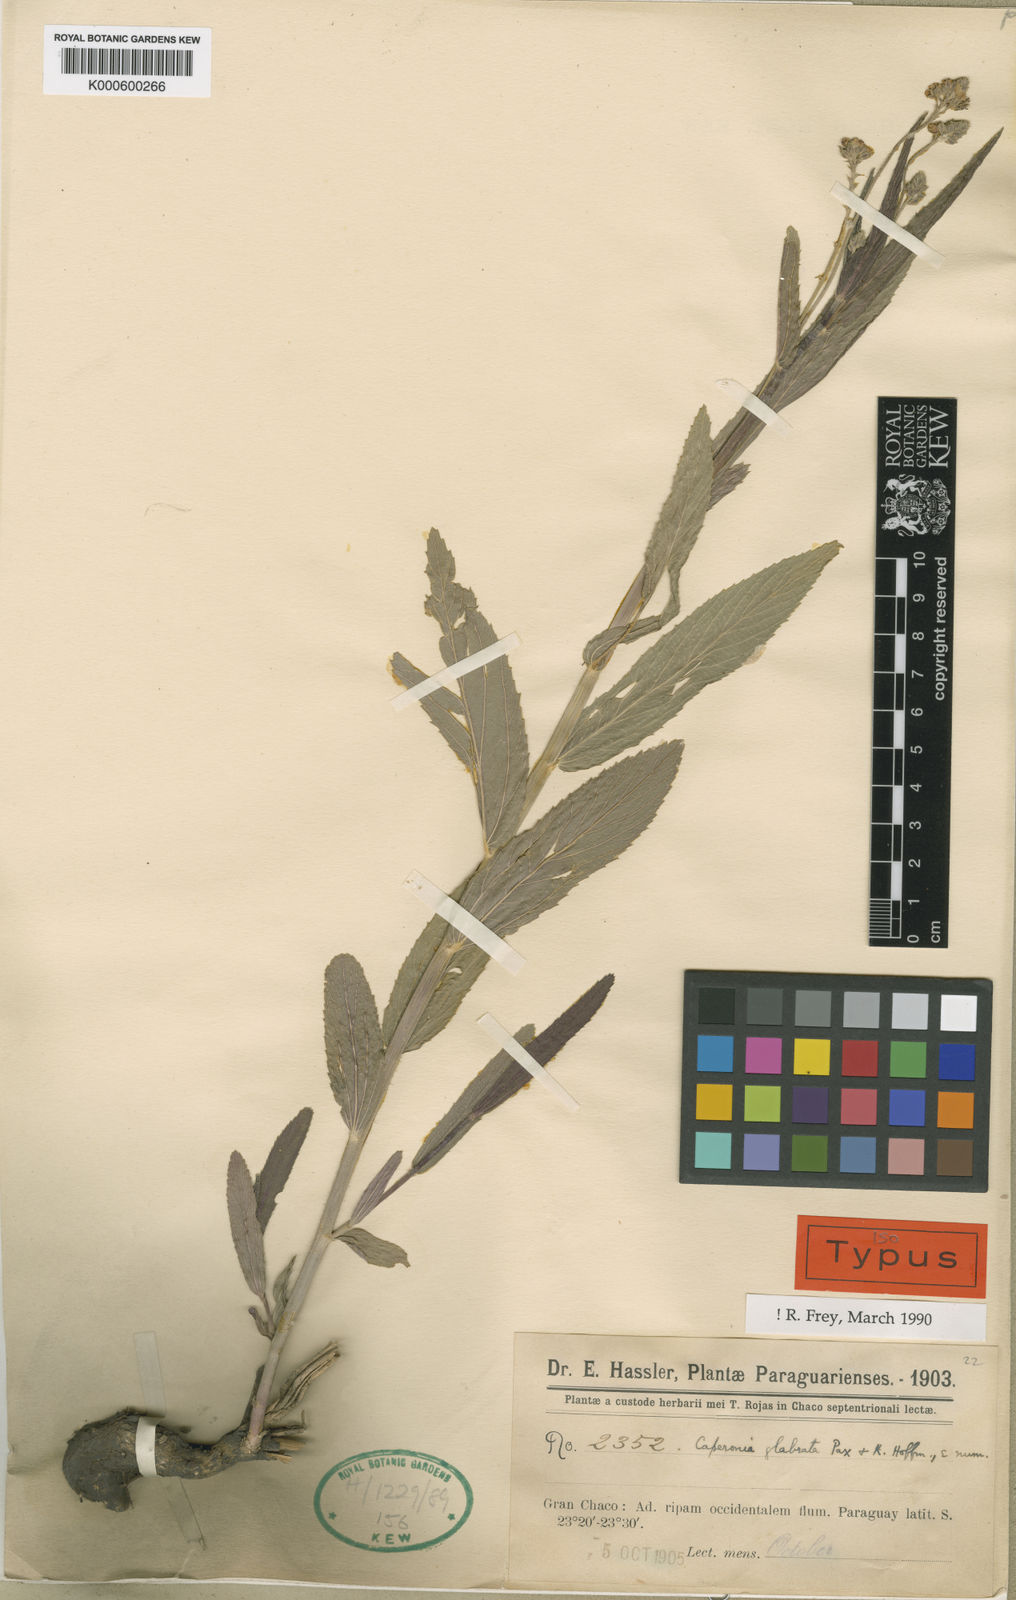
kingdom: Plantae
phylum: Tracheophyta
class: Magnoliopsida
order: Malpighiales
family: Euphorbiaceae
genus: Caperonia
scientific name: Caperonia glabrata
